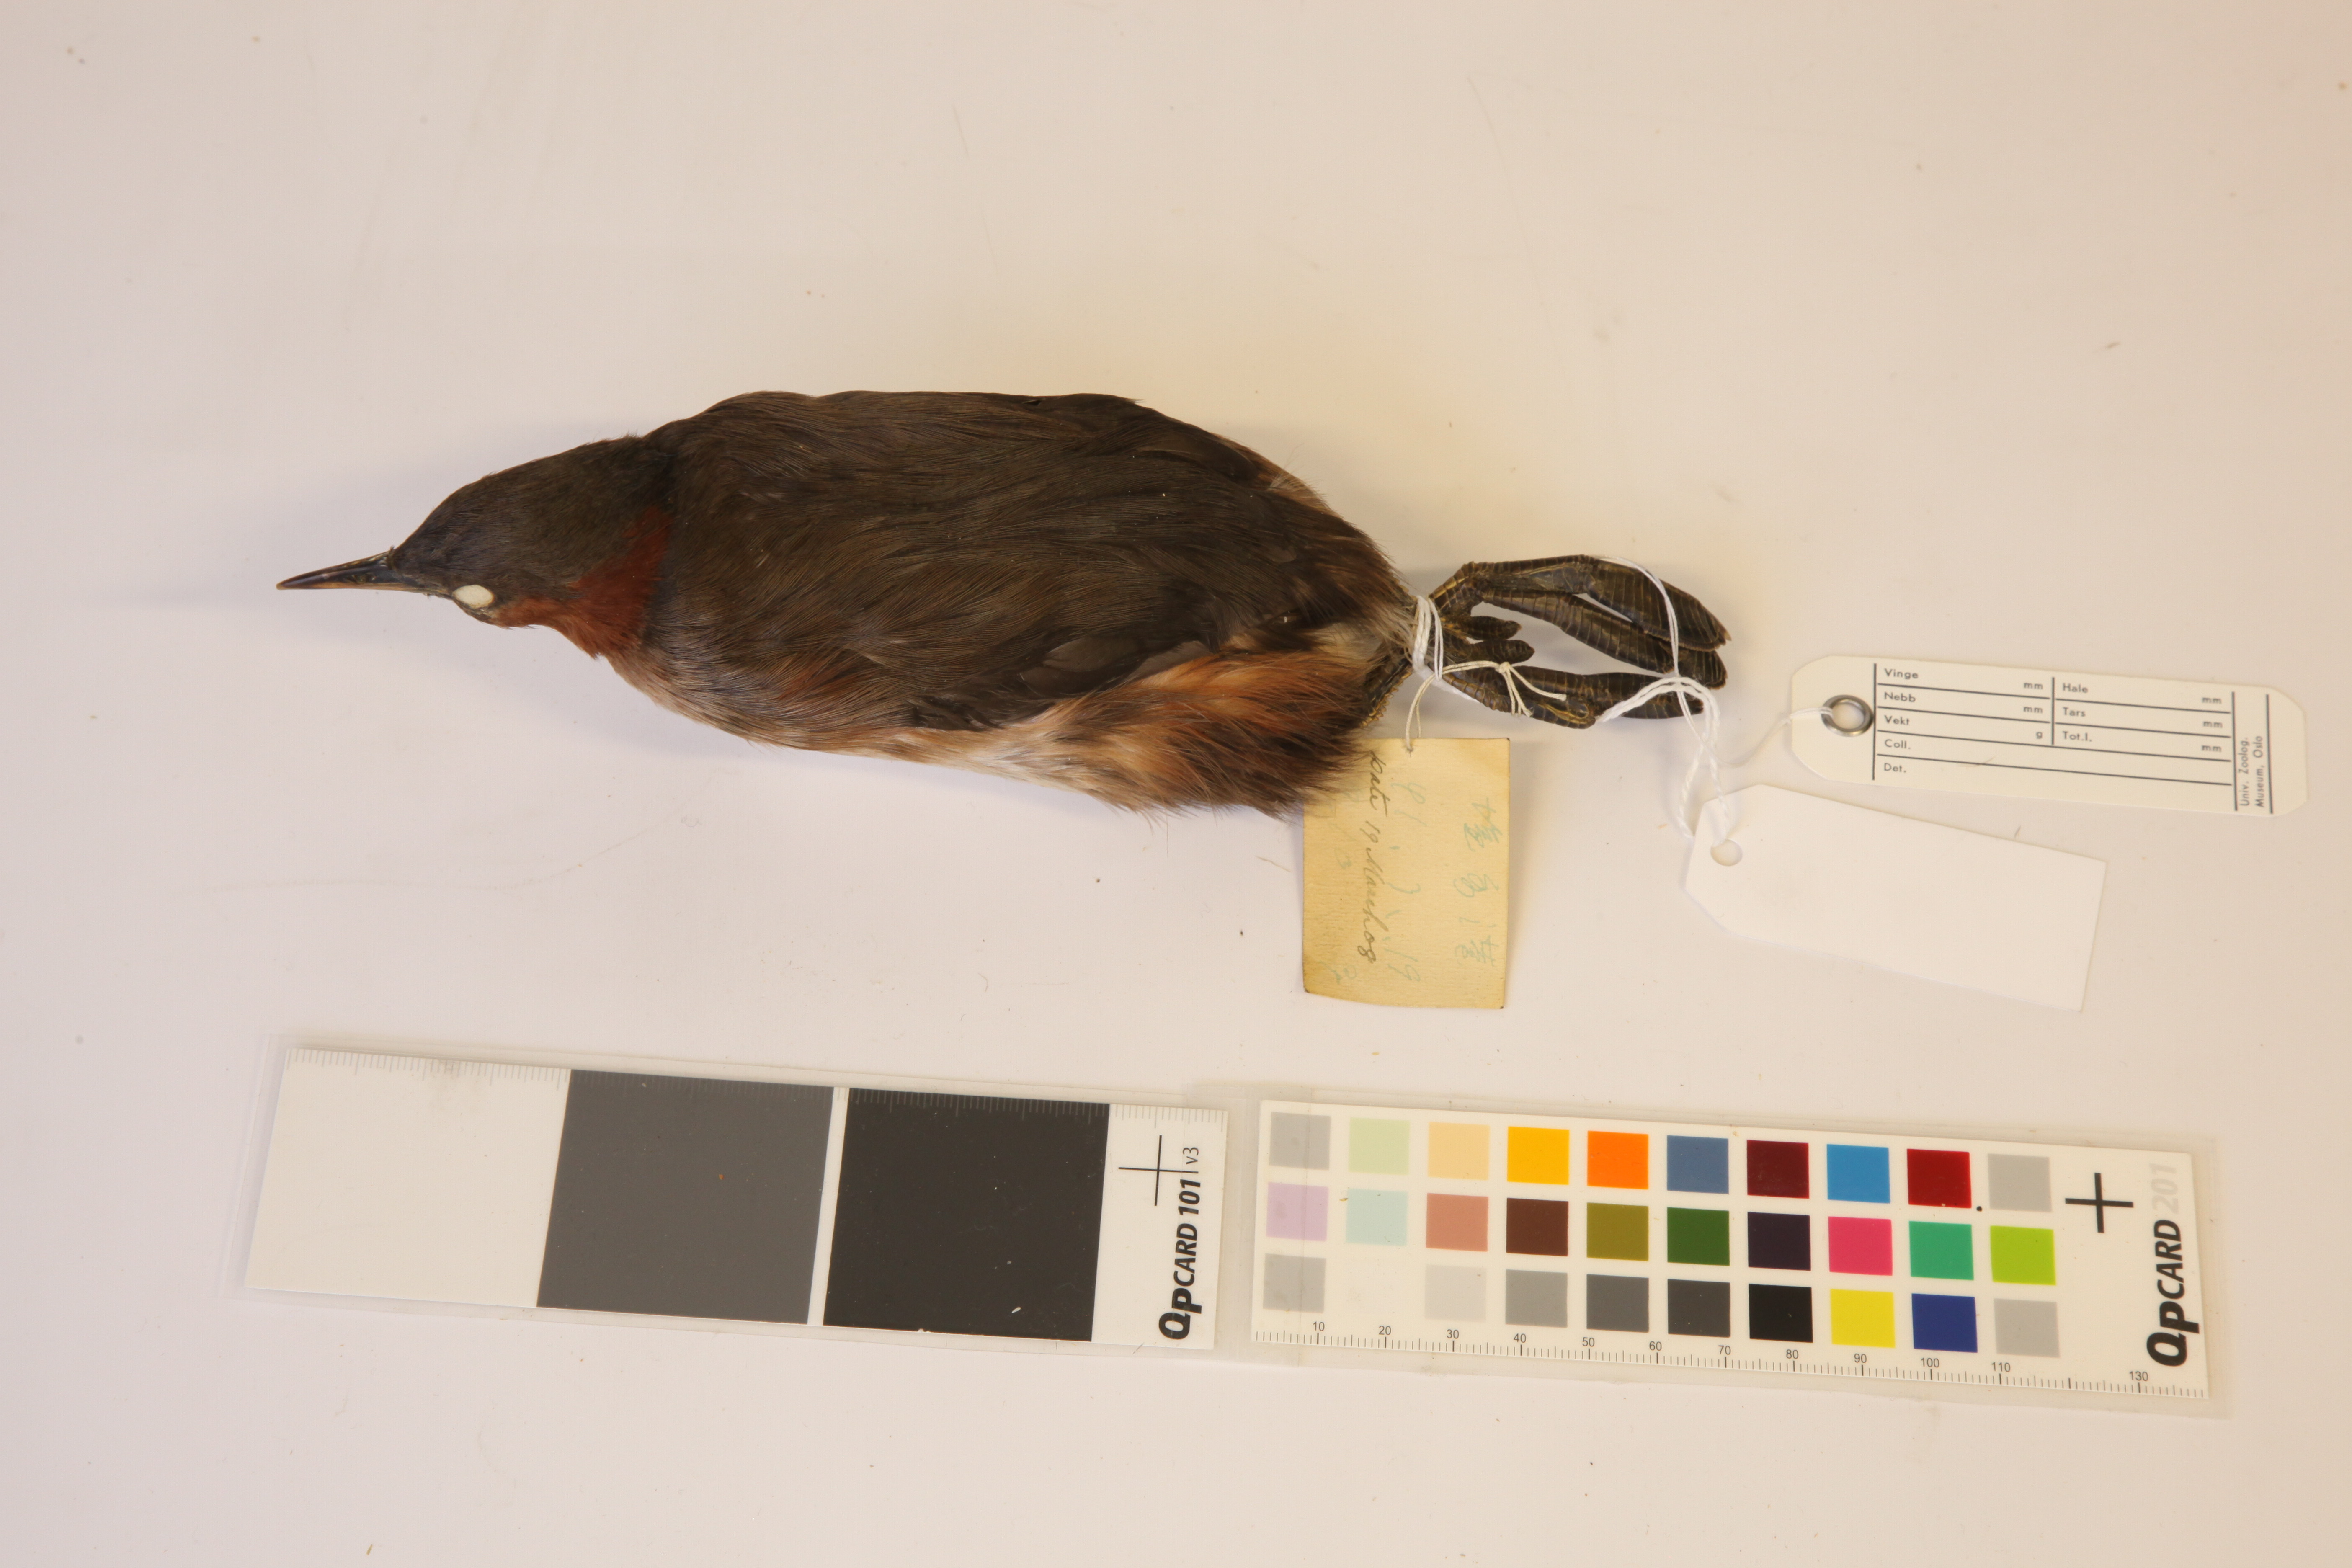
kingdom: Animalia
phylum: Chordata
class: Aves
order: Podicipediformes
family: Podicipedidae
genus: Tachybaptus
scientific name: Tachybaptus ruficollis
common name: Little grebe
